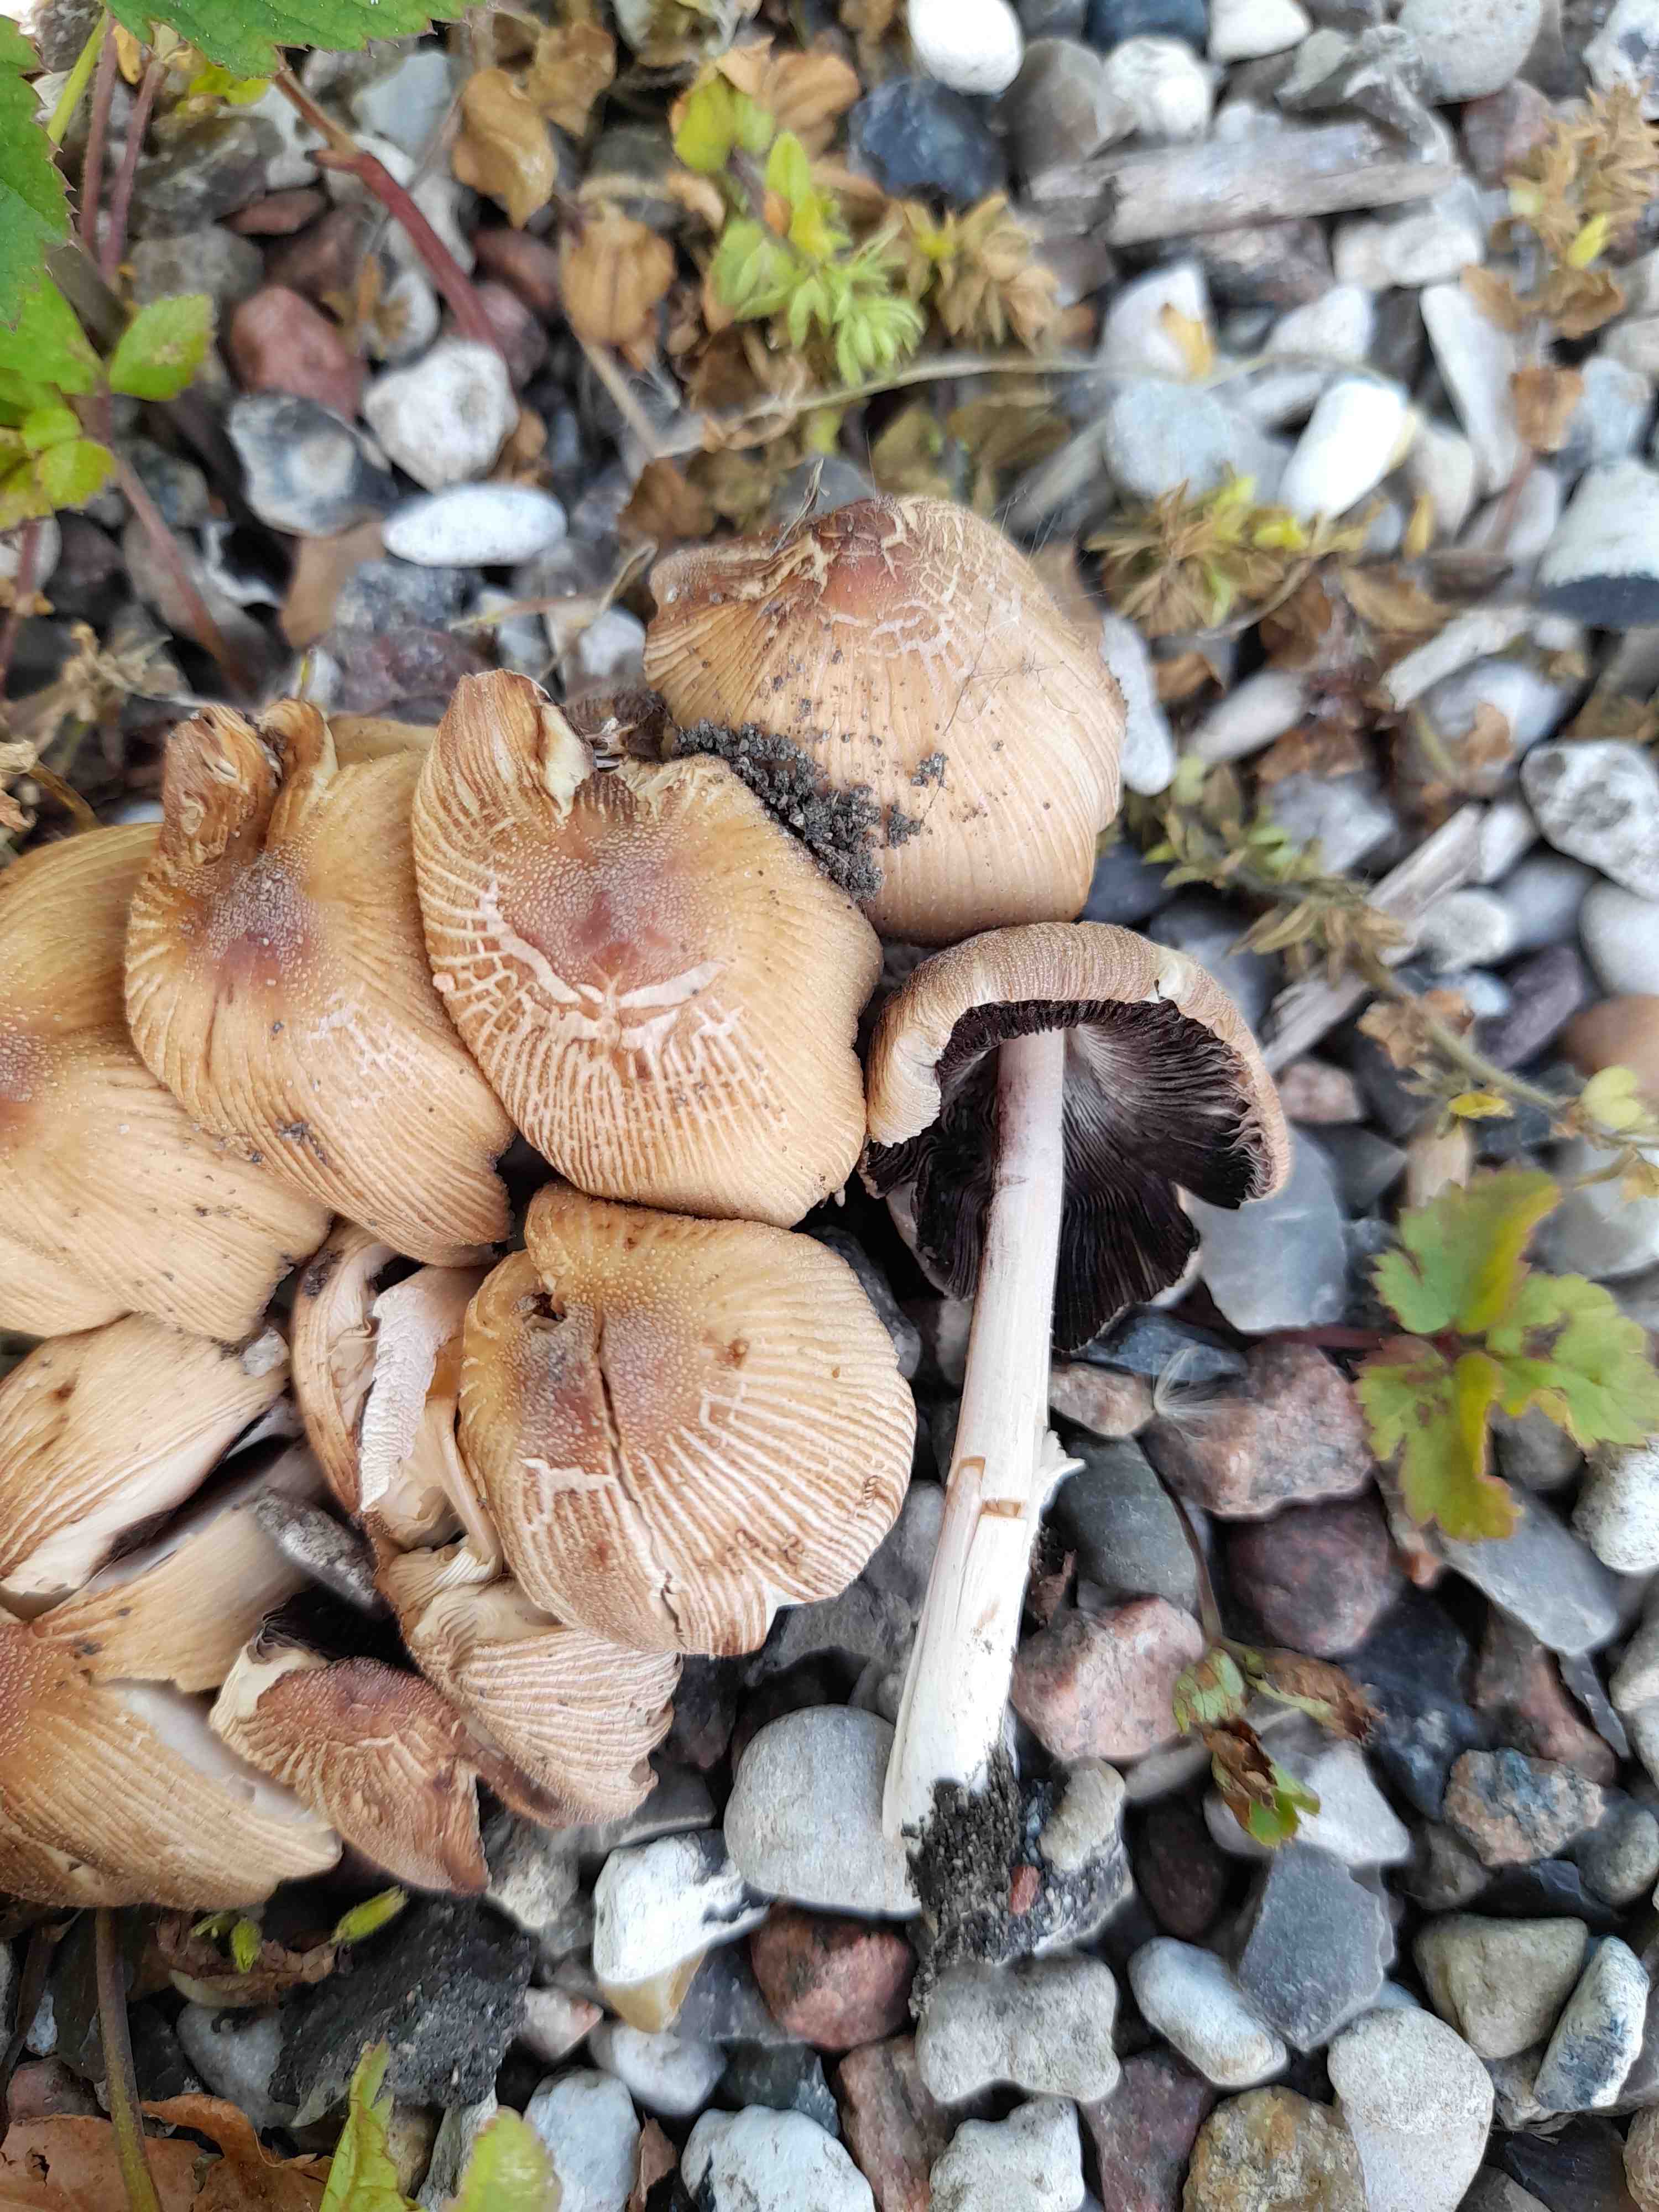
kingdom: Fungi
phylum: Basidiomycota
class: Agaricomycetes
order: Agaricales
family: Psathyrellaceae
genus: Coprinellus
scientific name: Coprinellus micaceus
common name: glimmer-blækhat
